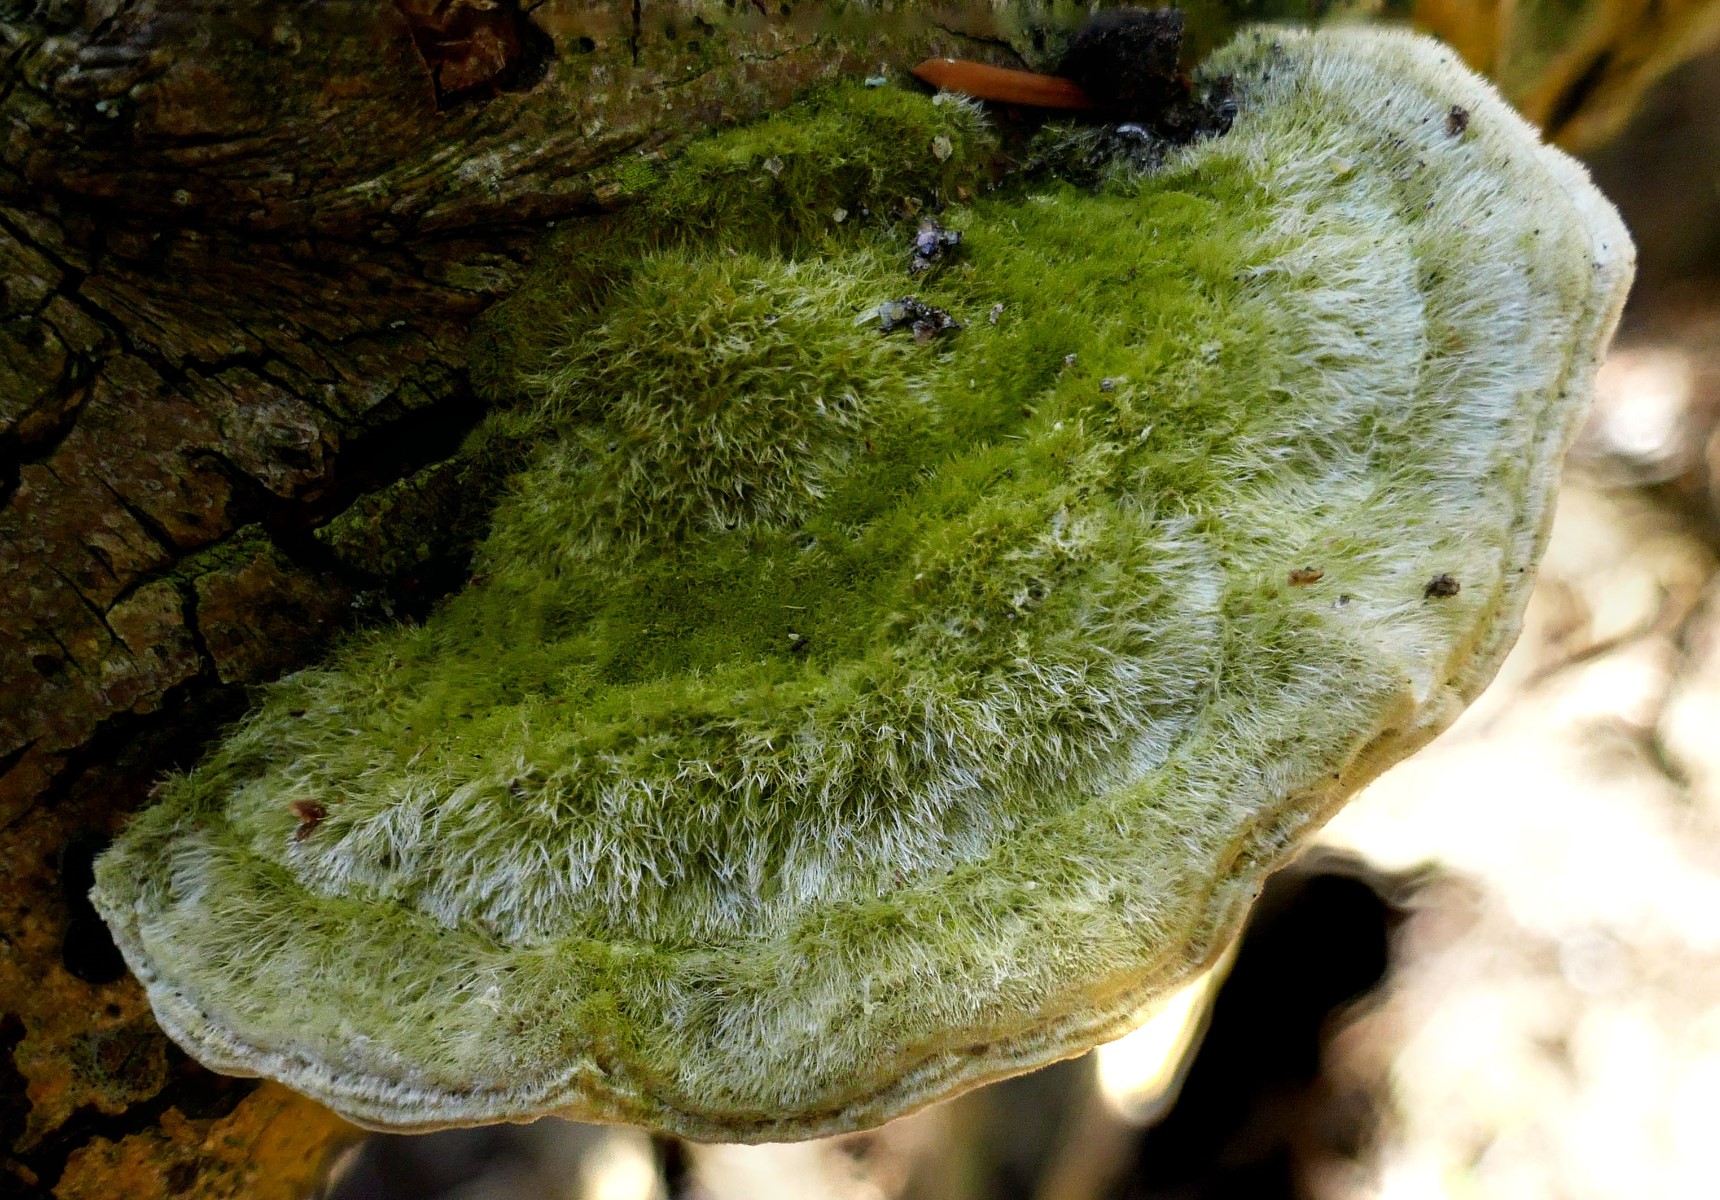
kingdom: Fungi
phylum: Basidiomycota
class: Agaricomycetes
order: Polyporales
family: Polyporaceae
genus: Trametes
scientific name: Trametes hirsuta
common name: håret læderporesvamp
